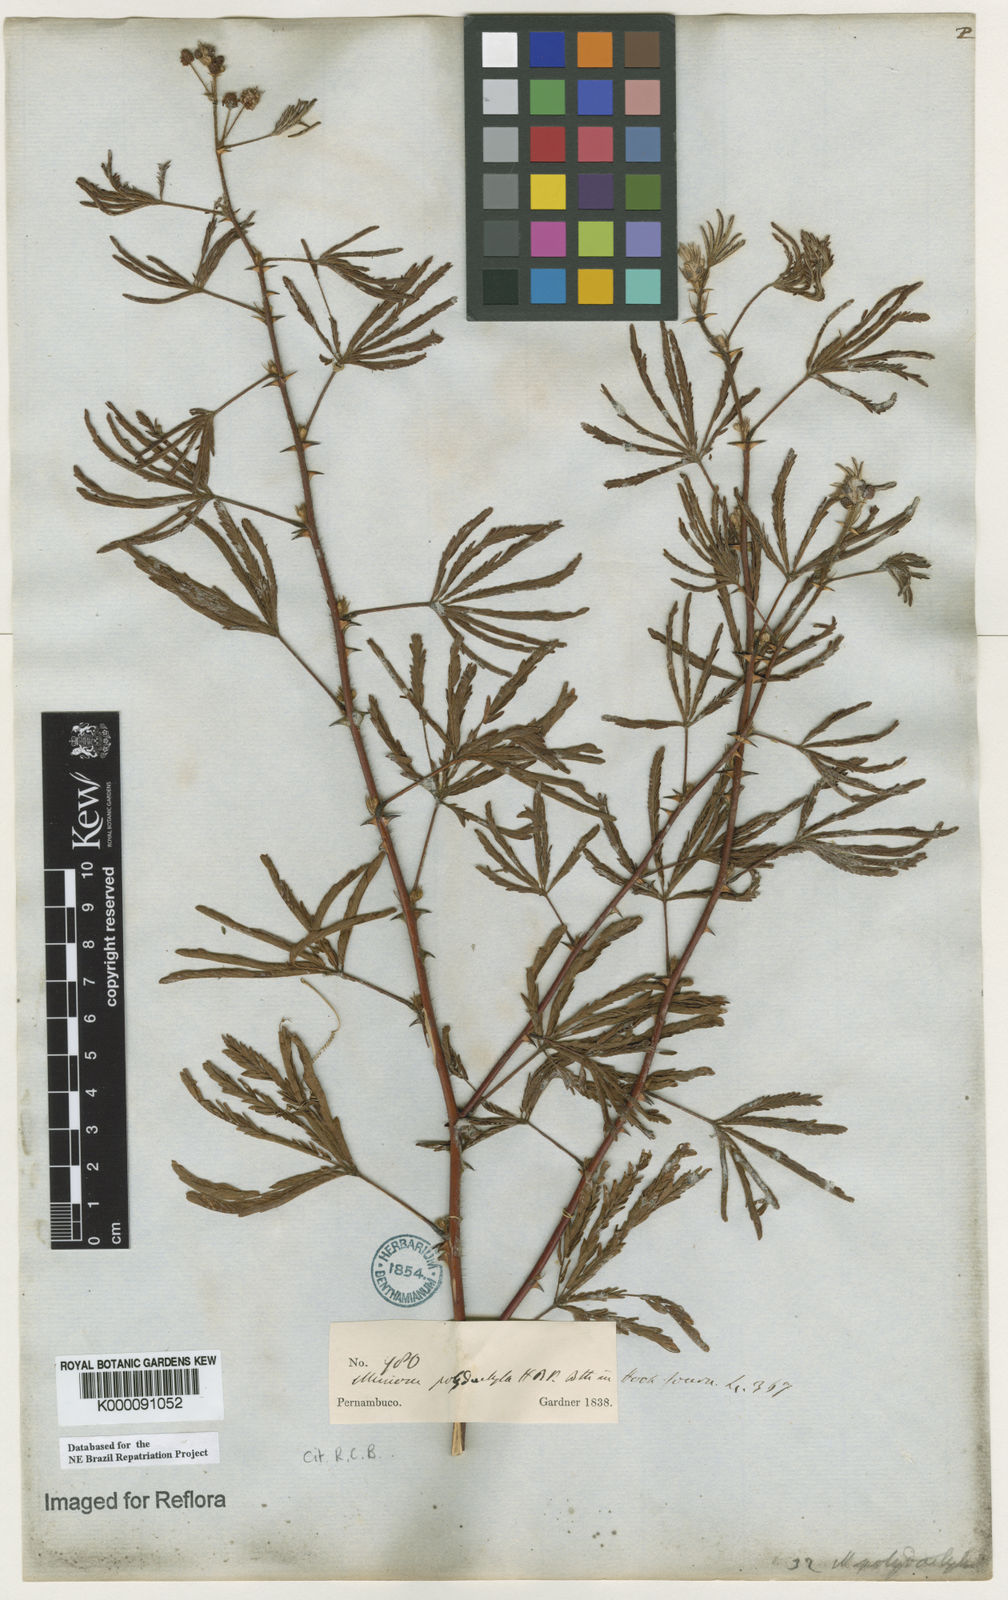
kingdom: Plantae
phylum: Tracheophyta
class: Magnoliopsida
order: Fabales
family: Fabaceae
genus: Mimosa
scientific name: Mimosa
